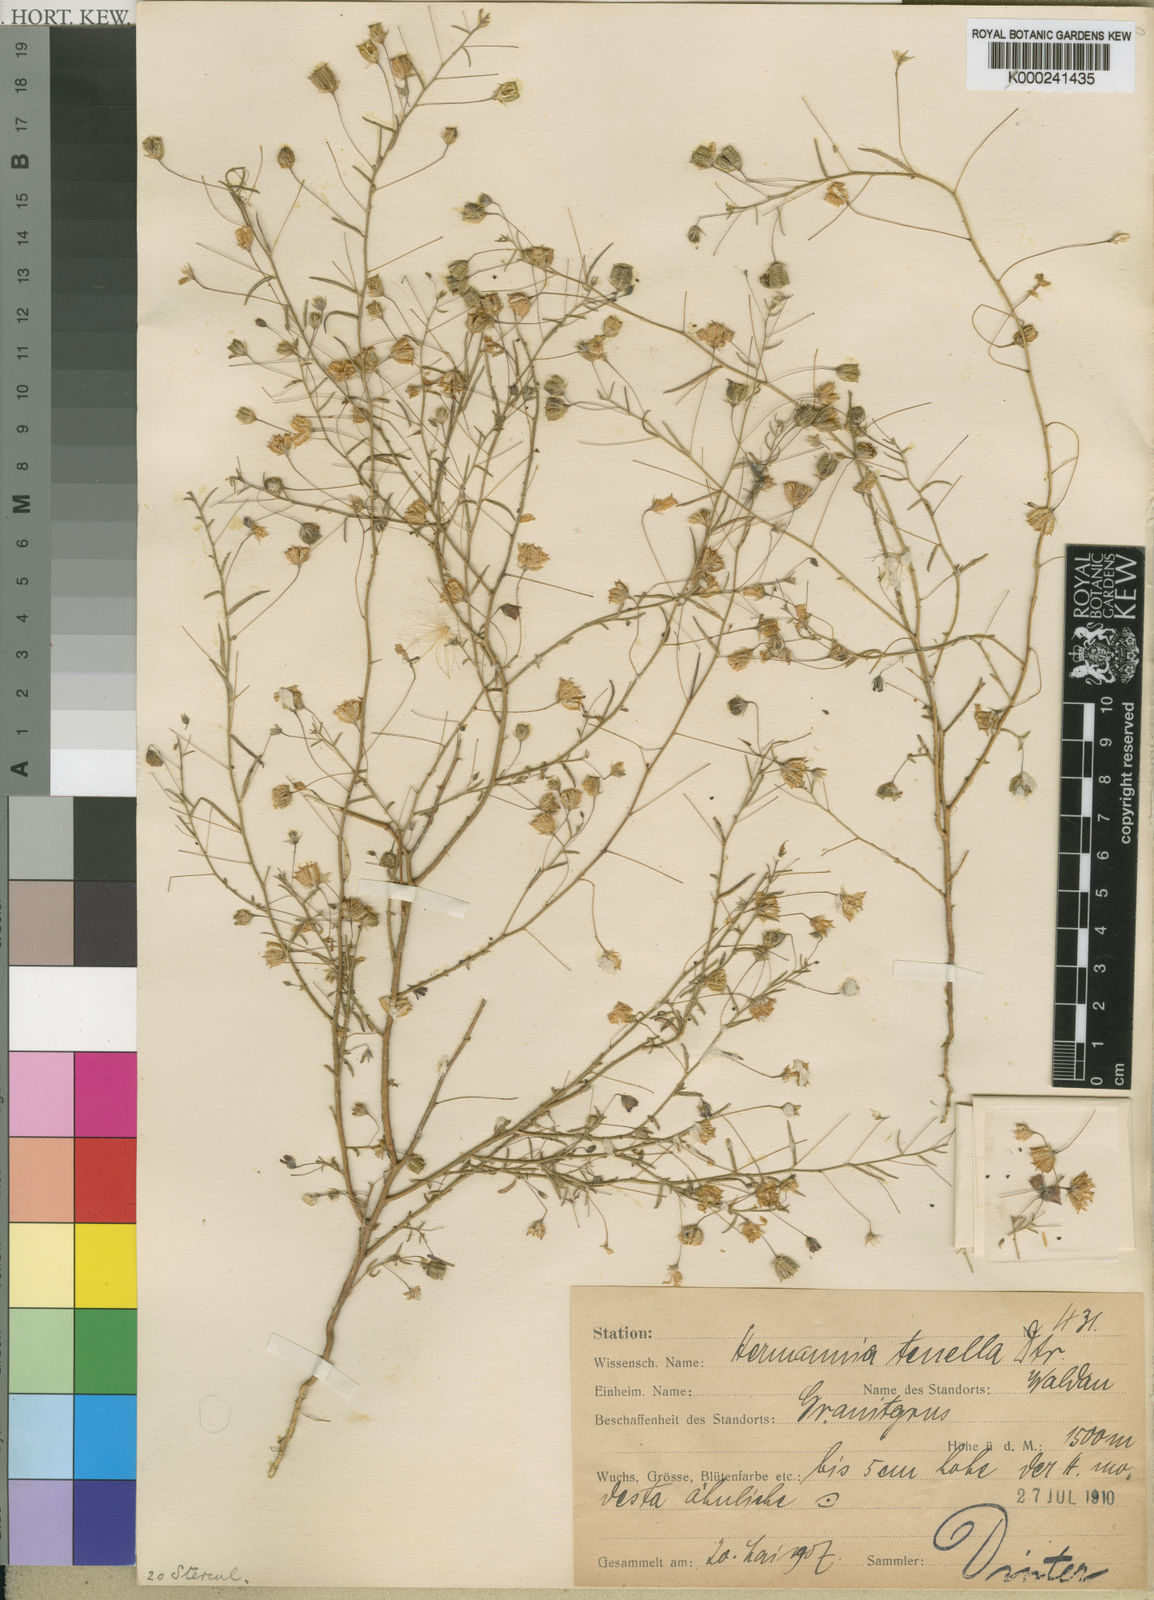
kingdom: Plantae
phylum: Tracheophyta
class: Magnoliopsida
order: Malvales
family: Malvaceae
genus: Hermannia
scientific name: Hermannia tigreensis
